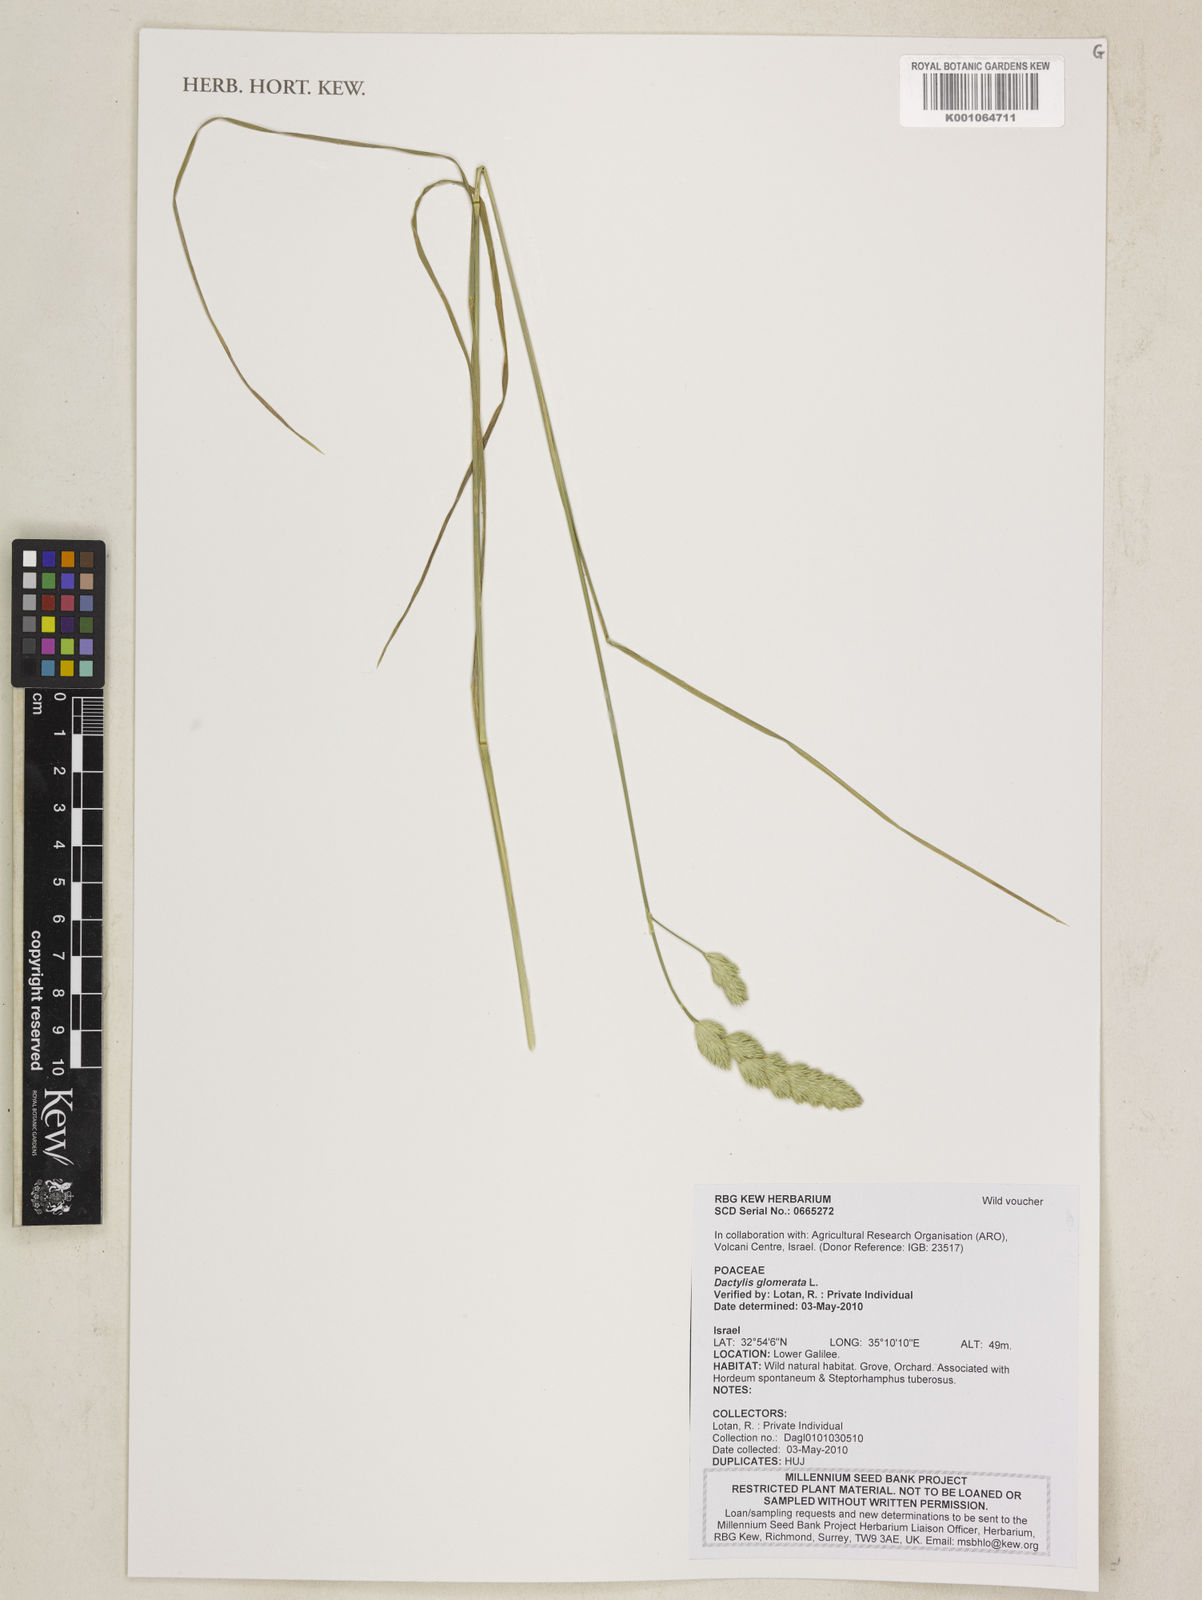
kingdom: Plantae
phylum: Tracheophyta
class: Liliopsida
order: Poales
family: Poaceae
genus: Dactylis
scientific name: Dactylis glomerata
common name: Orchardgrass
